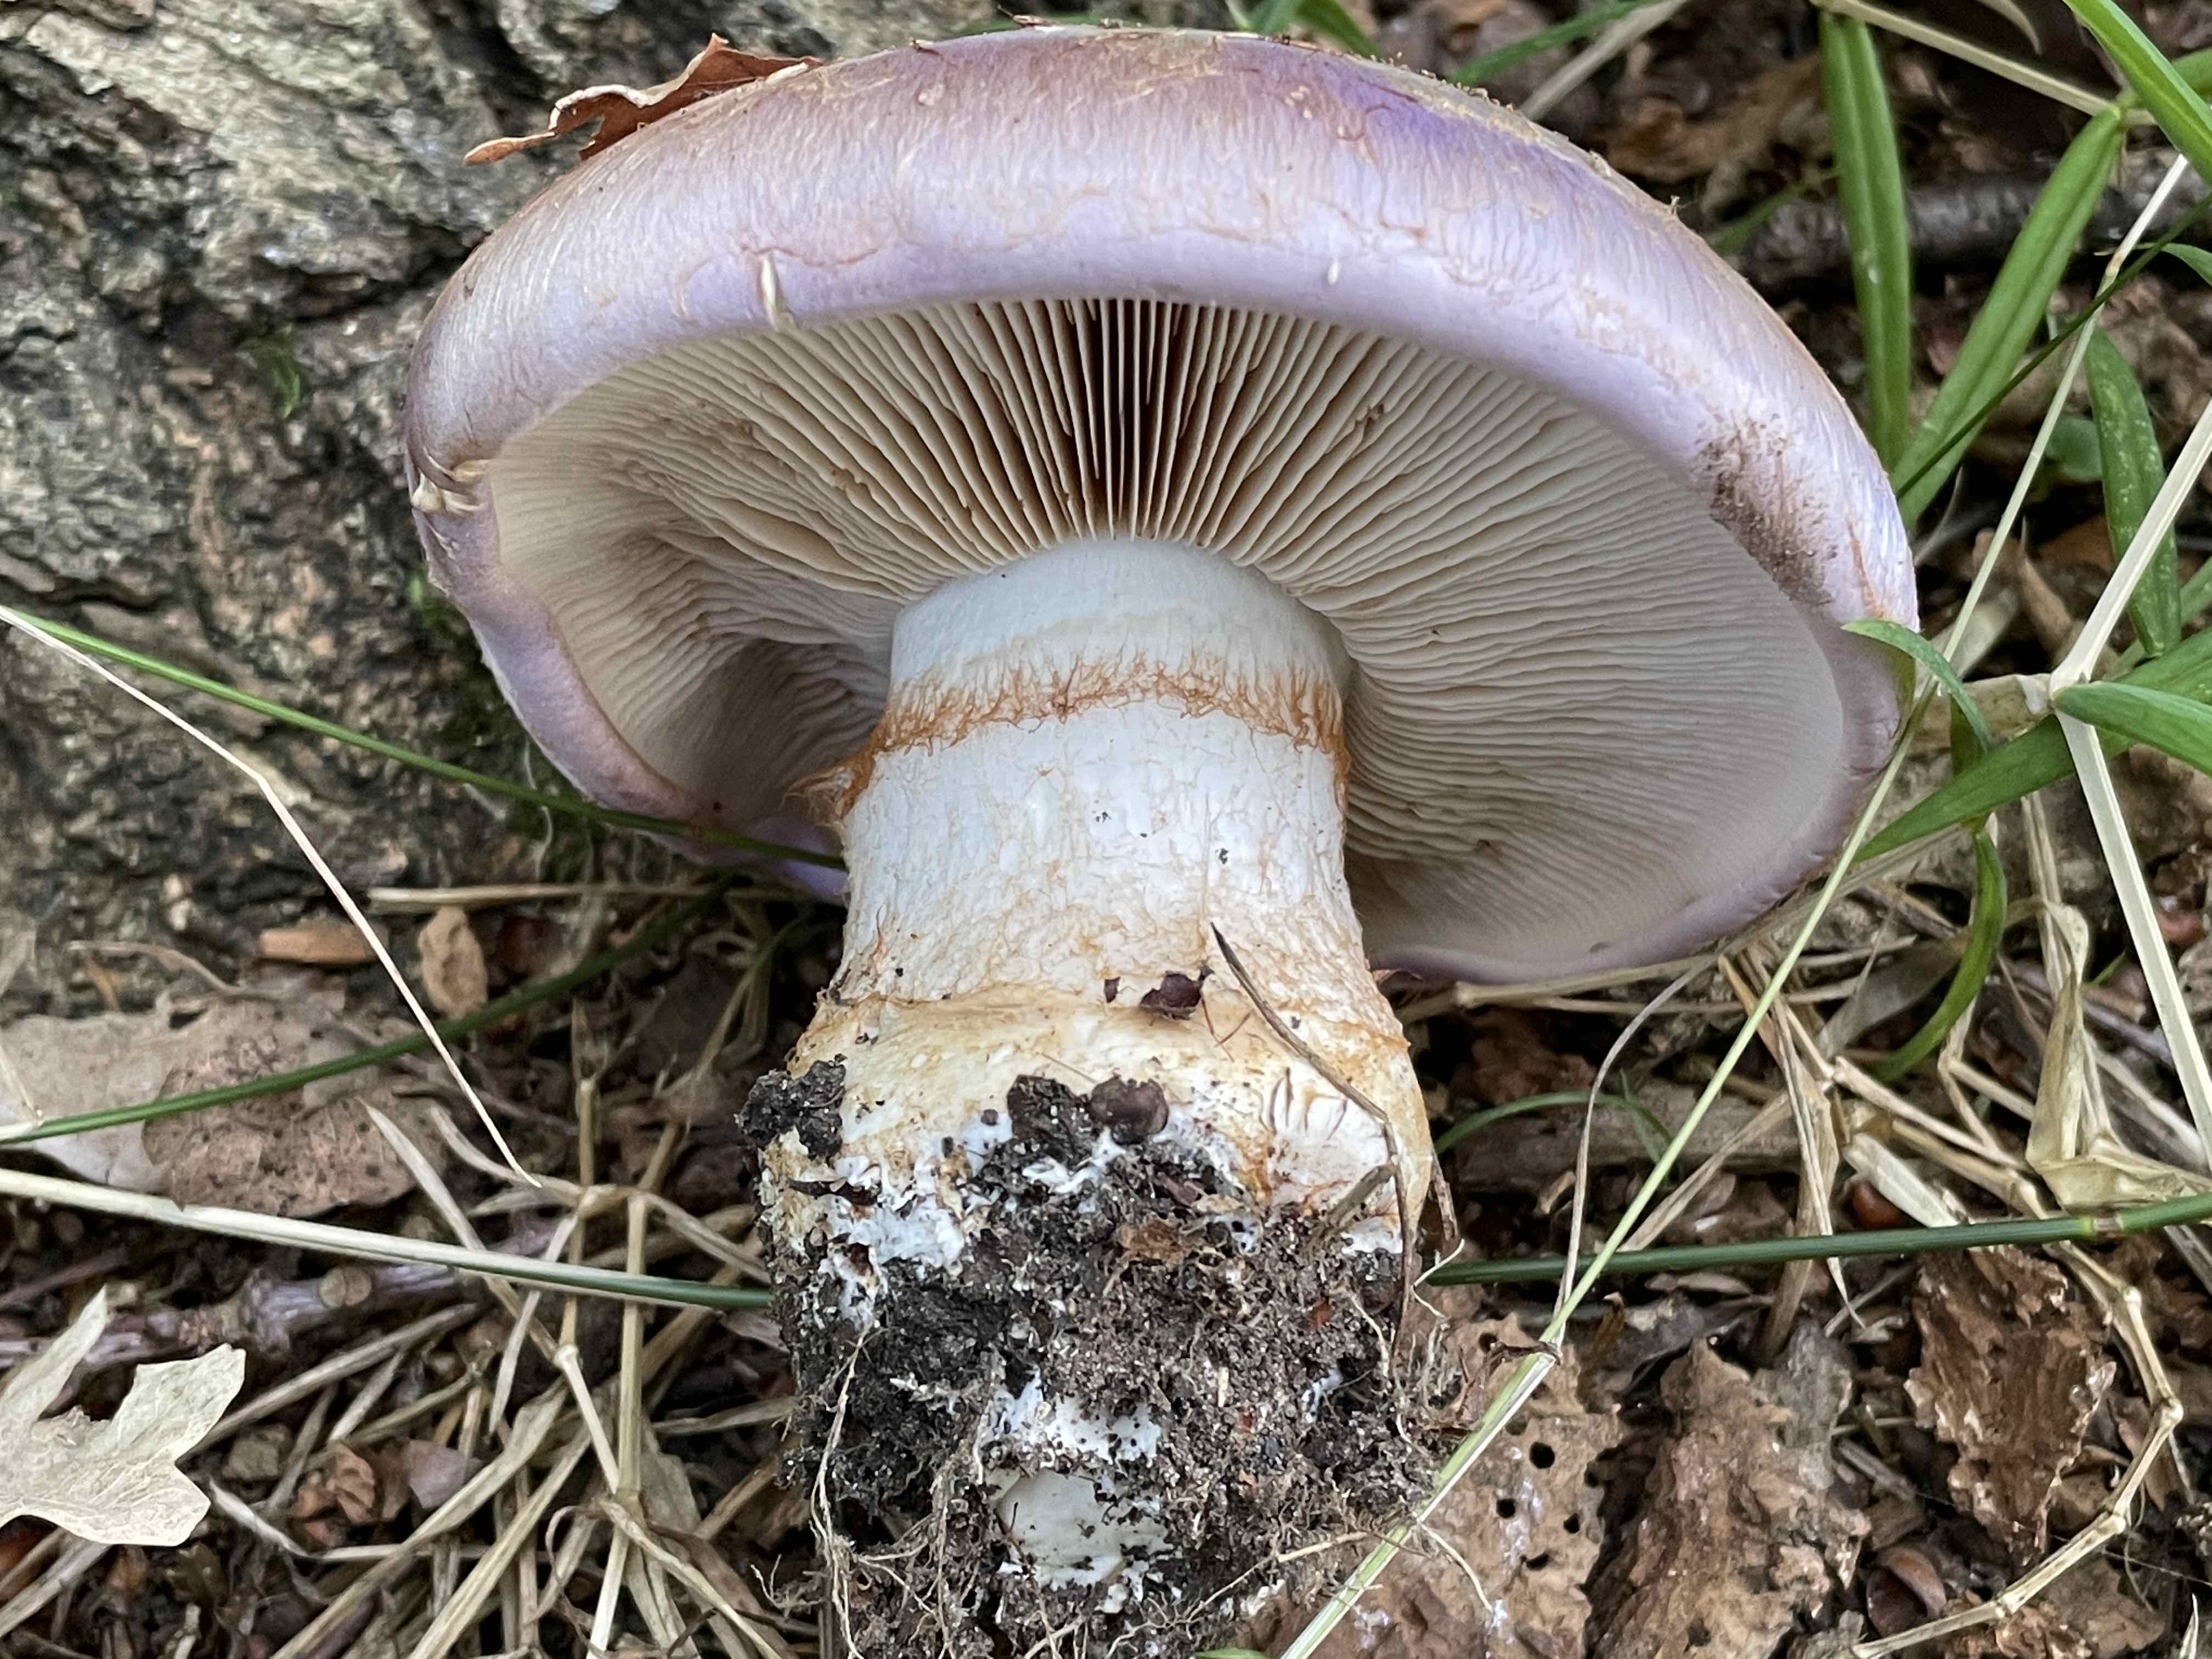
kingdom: Fungi
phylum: Basidiomycota
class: Agaricomycetes
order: Agaricales
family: Cortinariaceae
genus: Phlegmacium
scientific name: Phlegmacium balteatocumatile
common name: violettrådet slørhat
